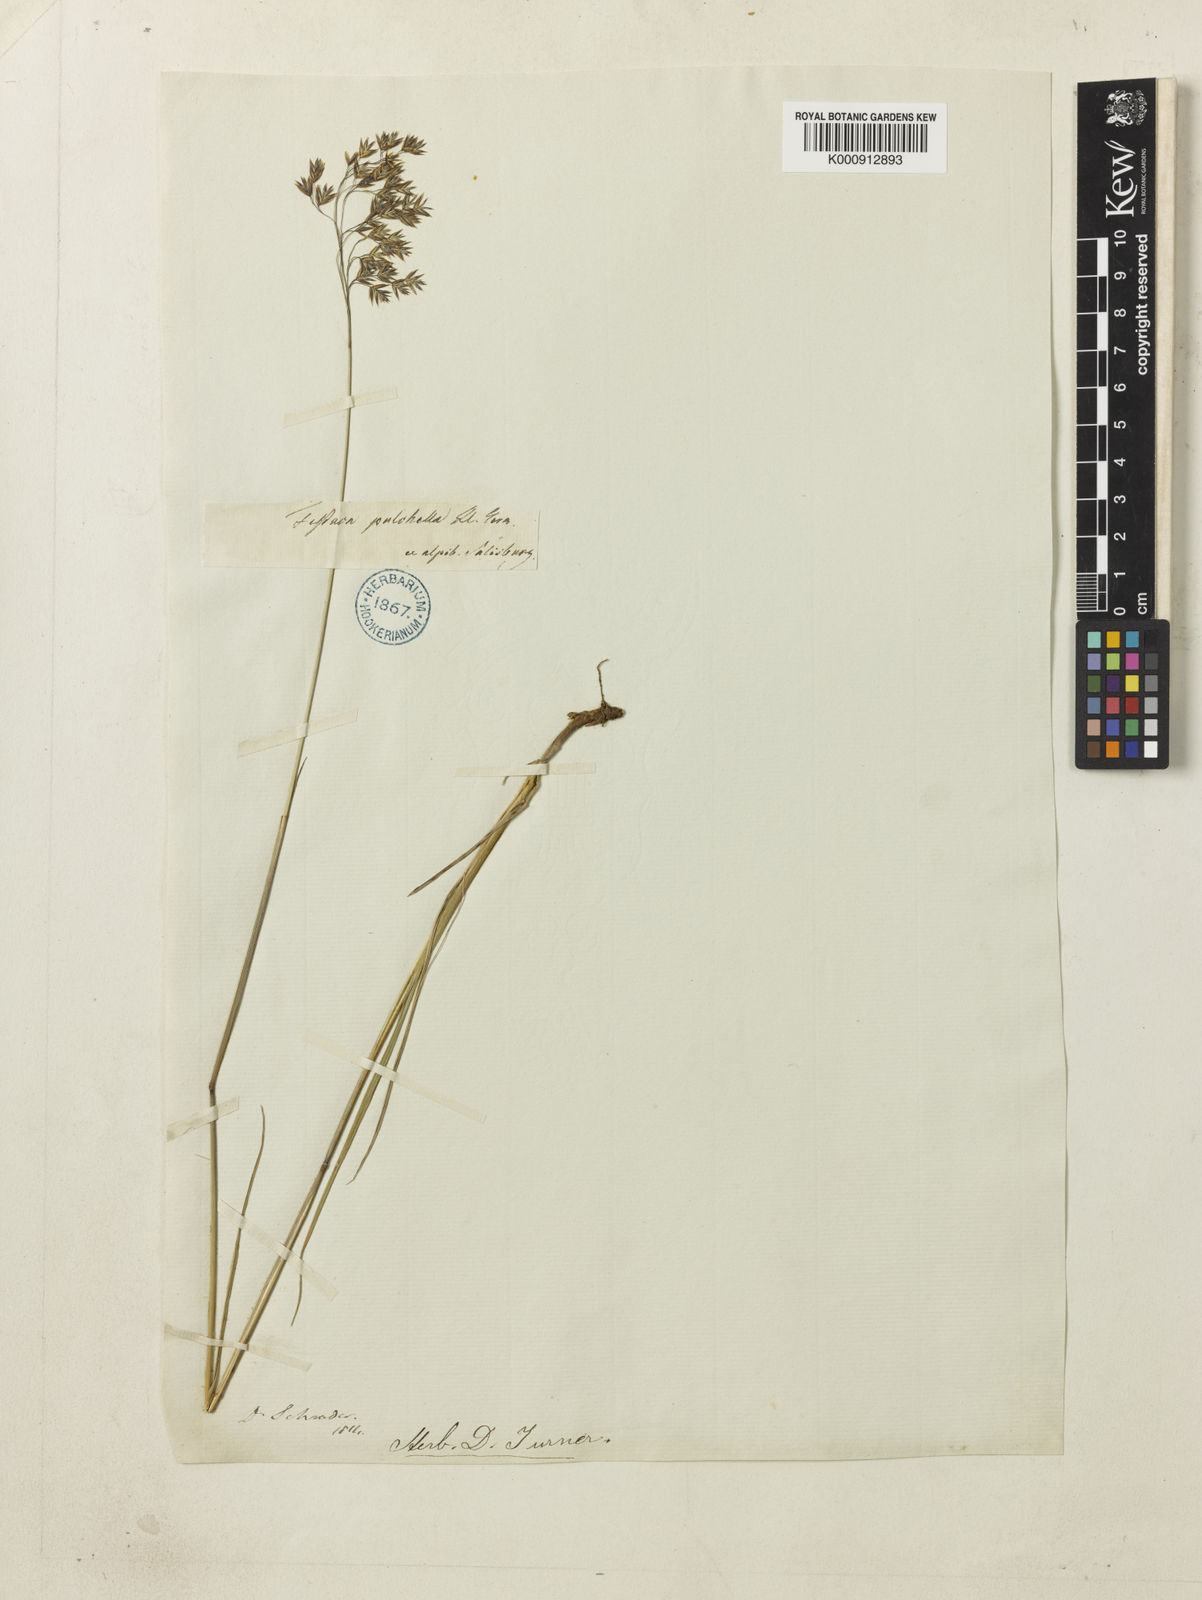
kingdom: Plantae
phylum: Tracheophyta
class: Liliopsida
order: Poales
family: Poaceae
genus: Festuca
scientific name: Festuca pulchella
